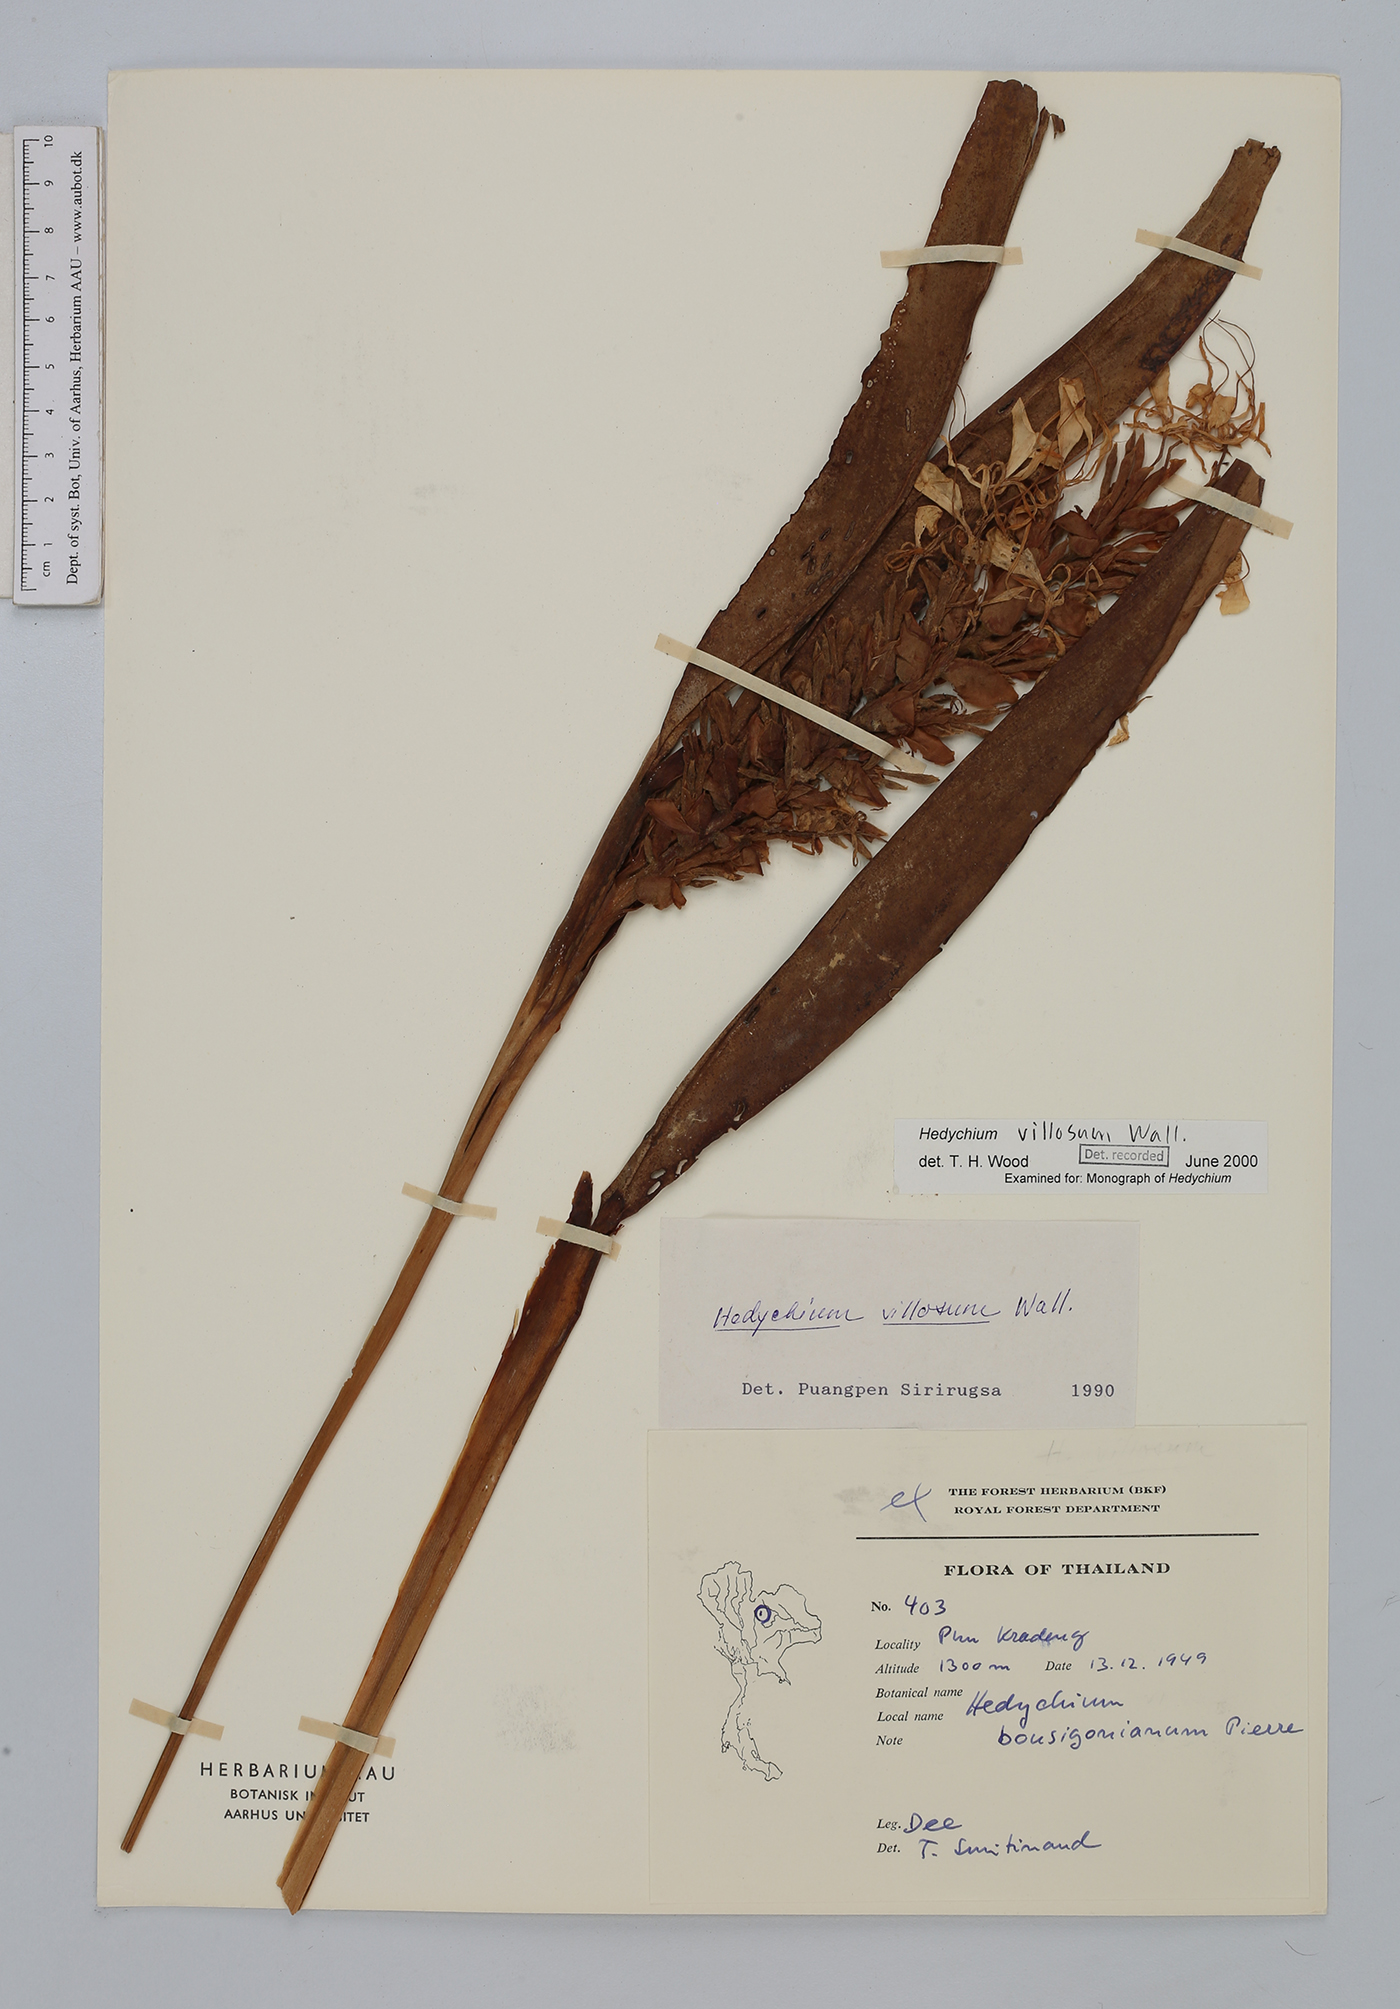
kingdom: Plantae
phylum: Tracheophyta
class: Liliopsida
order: Zingiberales
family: Zingiberaceae
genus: Hedychium
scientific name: Hedychium villosum
